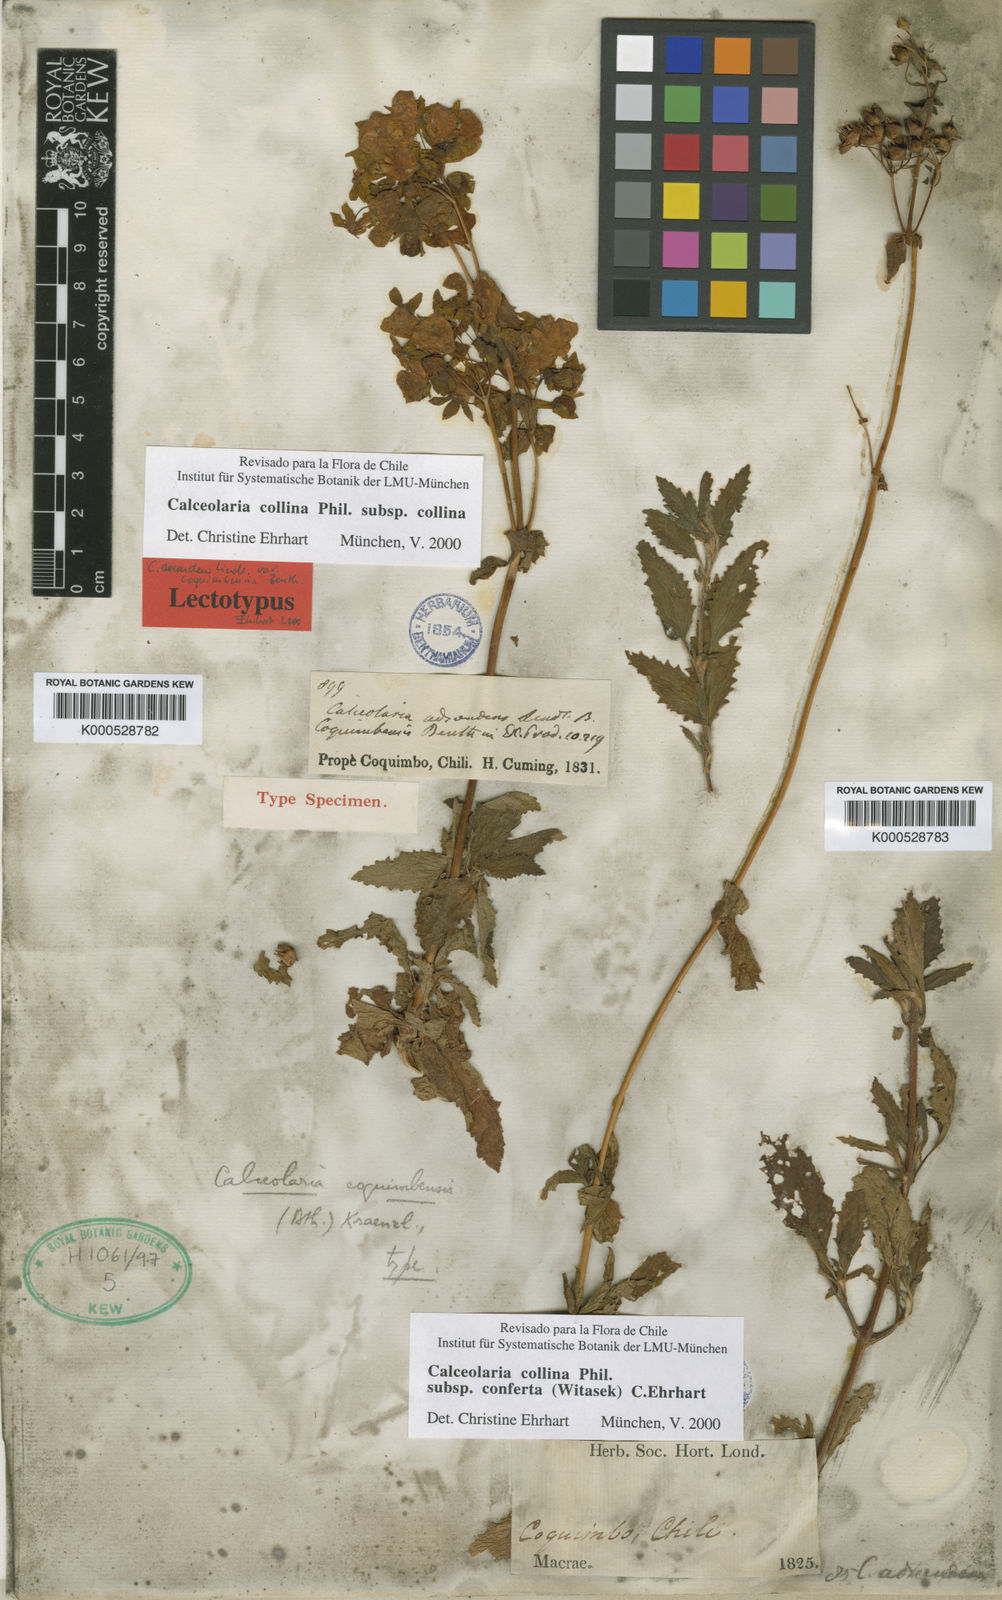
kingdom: Plantae
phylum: Tracheophyta
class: Magnoliopsida
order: Lamiales
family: Calceolariaceae
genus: Calceolaria
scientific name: Calceolaria collina
